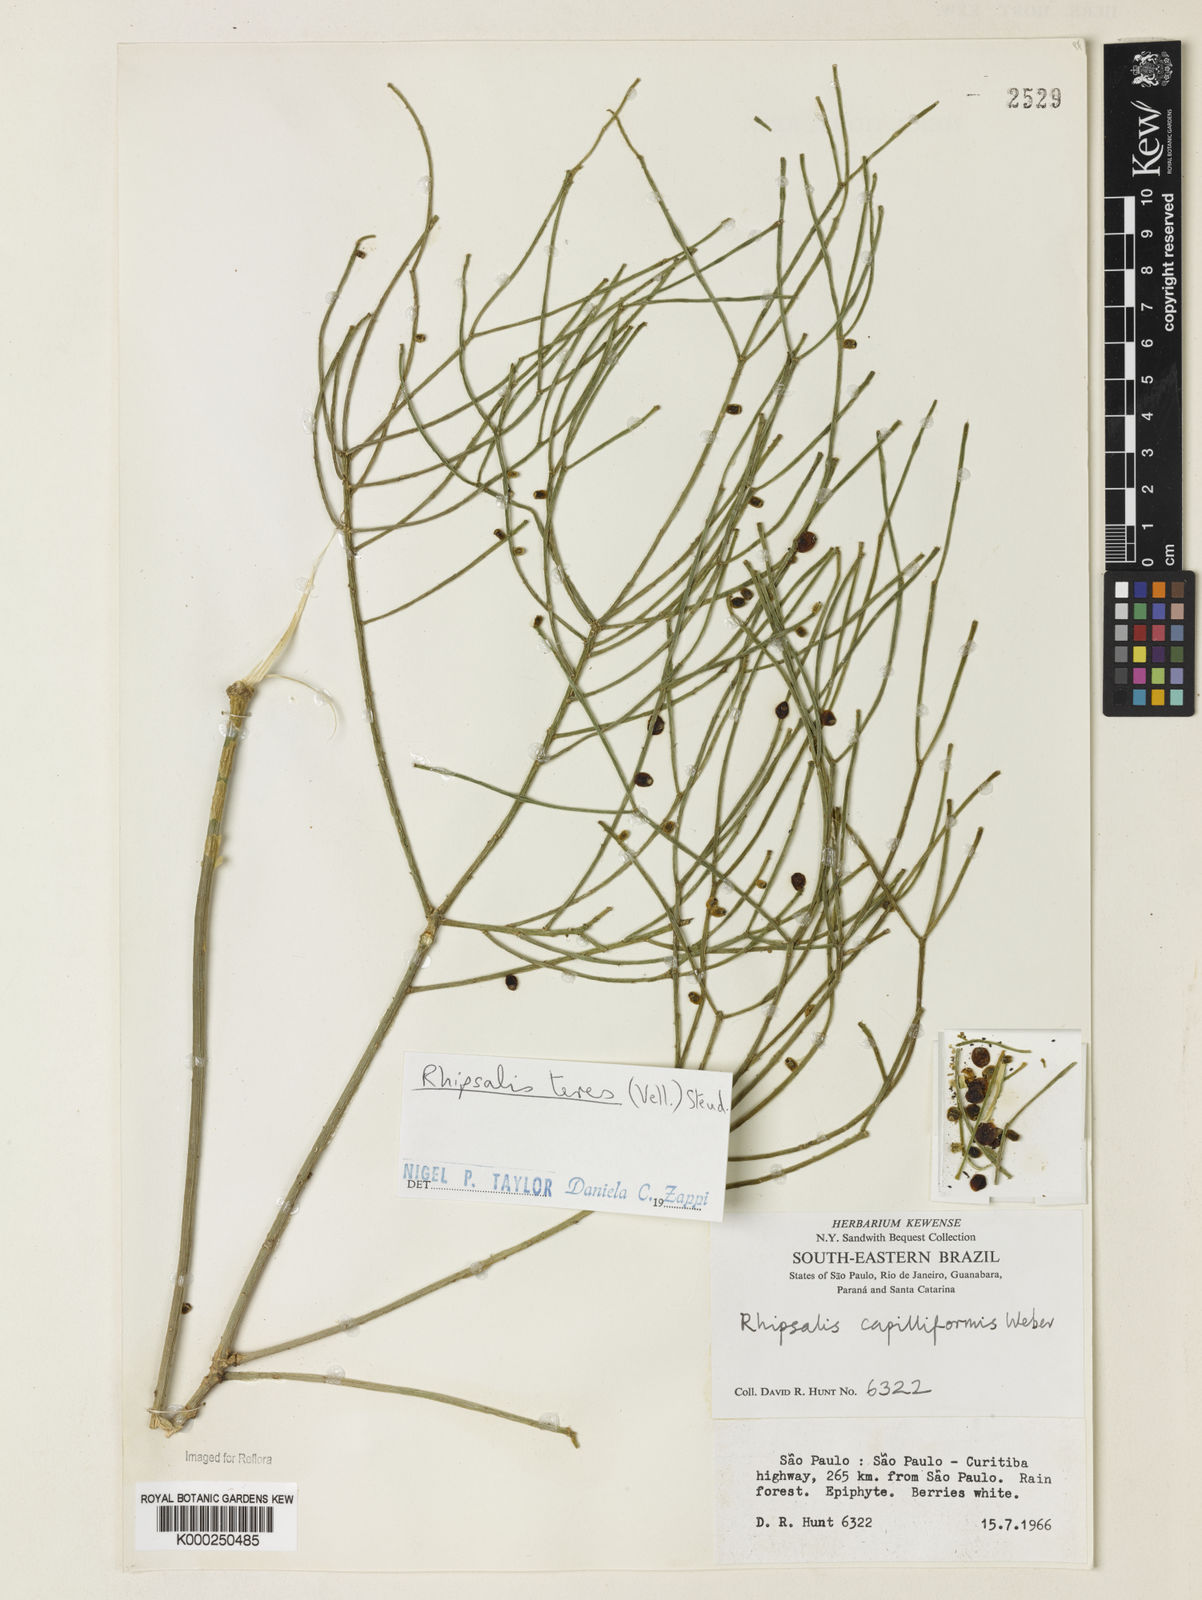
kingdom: Plantae
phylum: Tracheophyta
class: Magnoliopsida
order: Caryophyllales
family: Cactaceae
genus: Rhipsalis
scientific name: Rhipsalis teres
